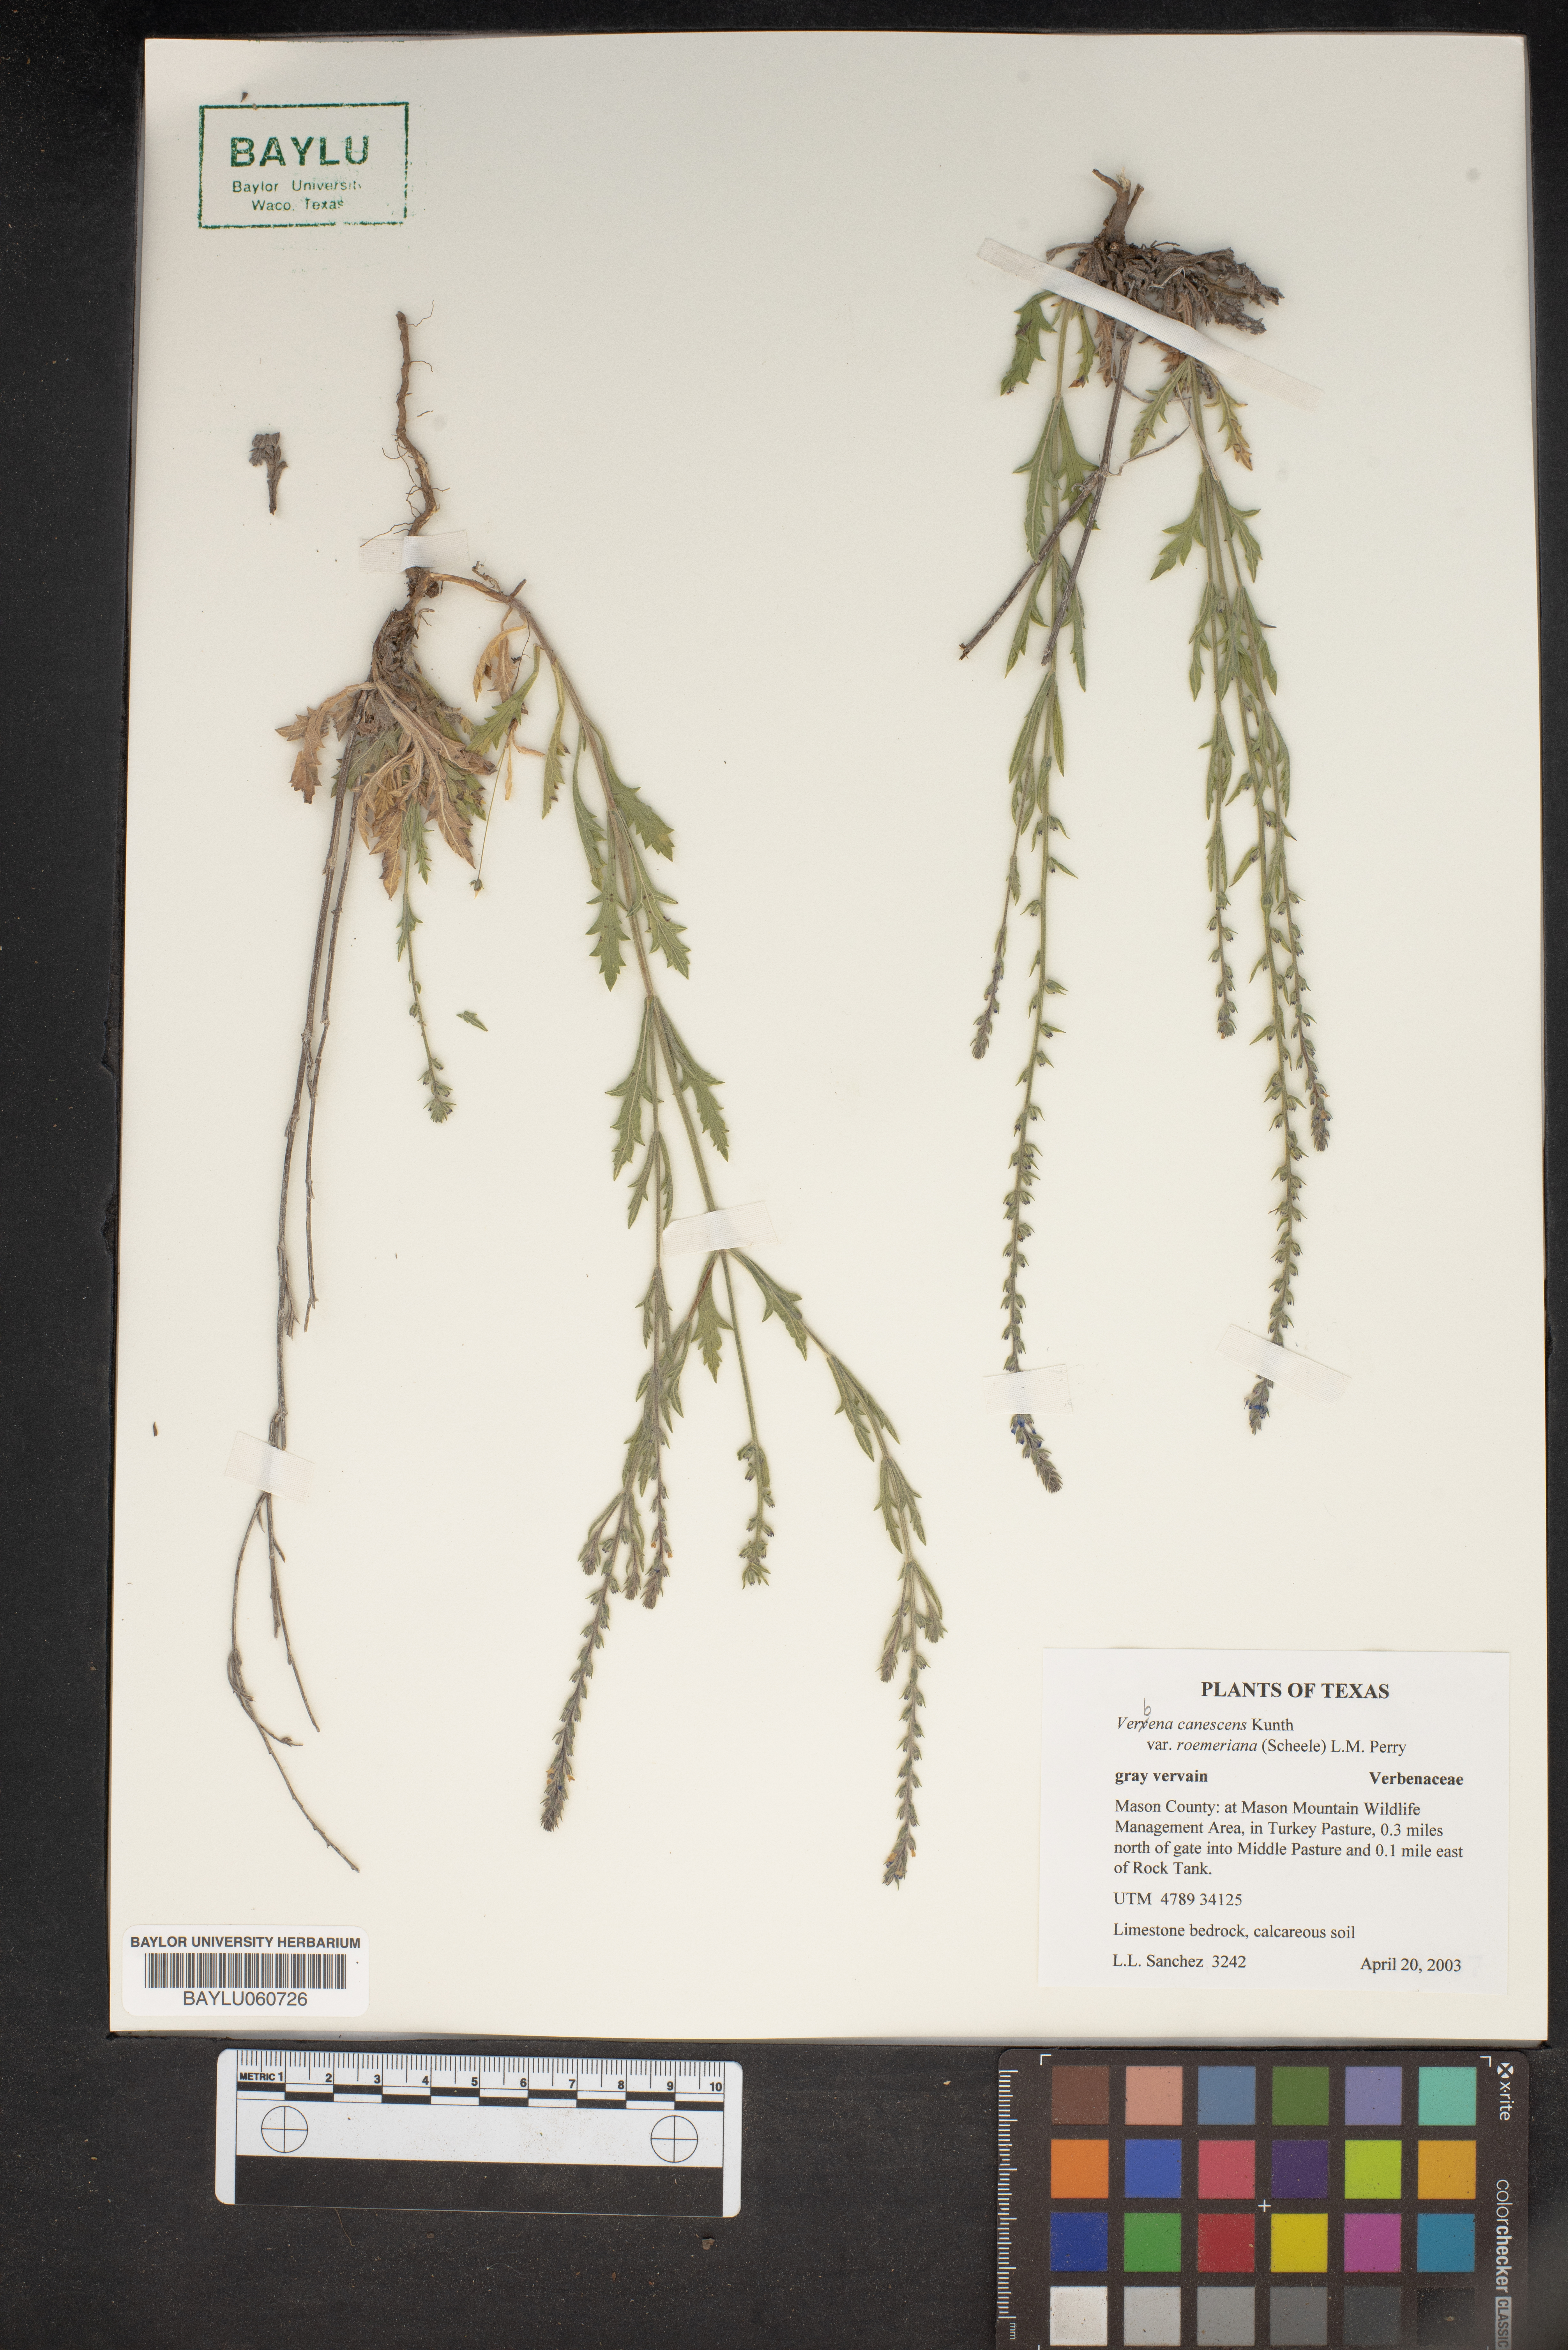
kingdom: Plantae
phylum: Tracheophyta
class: Magnoliopsida
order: Lamiales
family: Verbenaceae
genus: Verbena
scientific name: Verbena canescens
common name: Gray vervain
